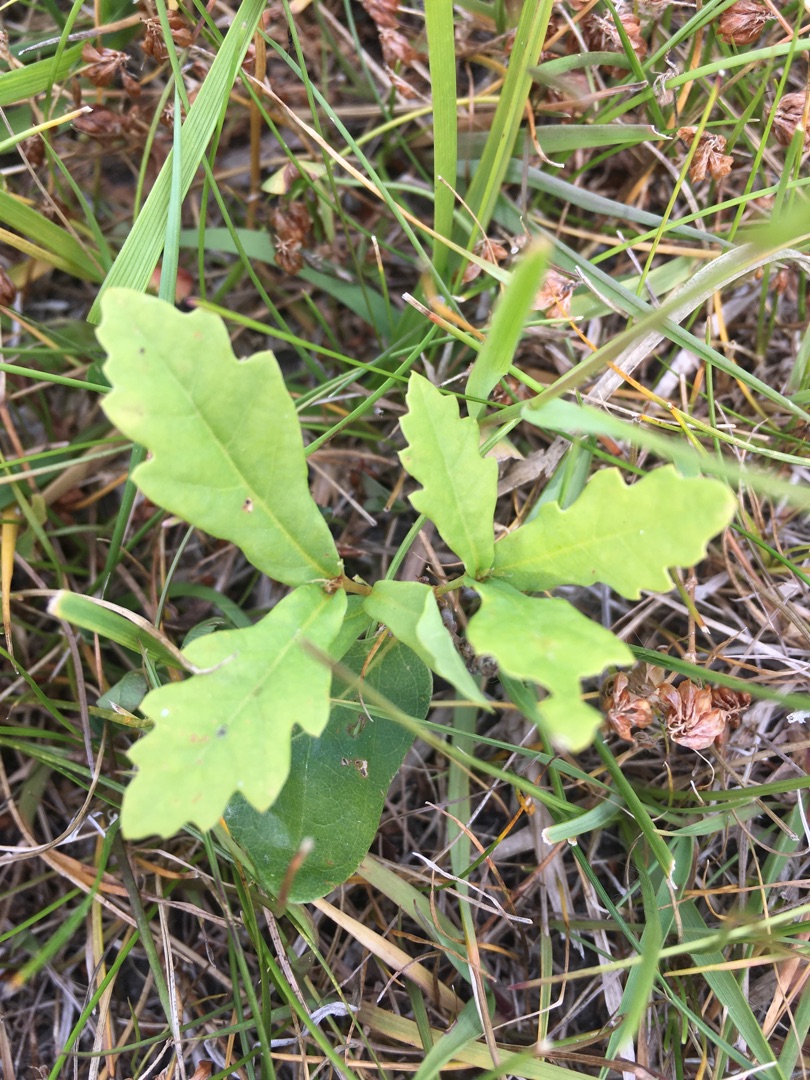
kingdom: Plantae
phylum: Tracheophyta
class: Magnoliopsida
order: Fagales
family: Fagaceae
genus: Quercus
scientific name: Quercus
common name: Egeslægten
